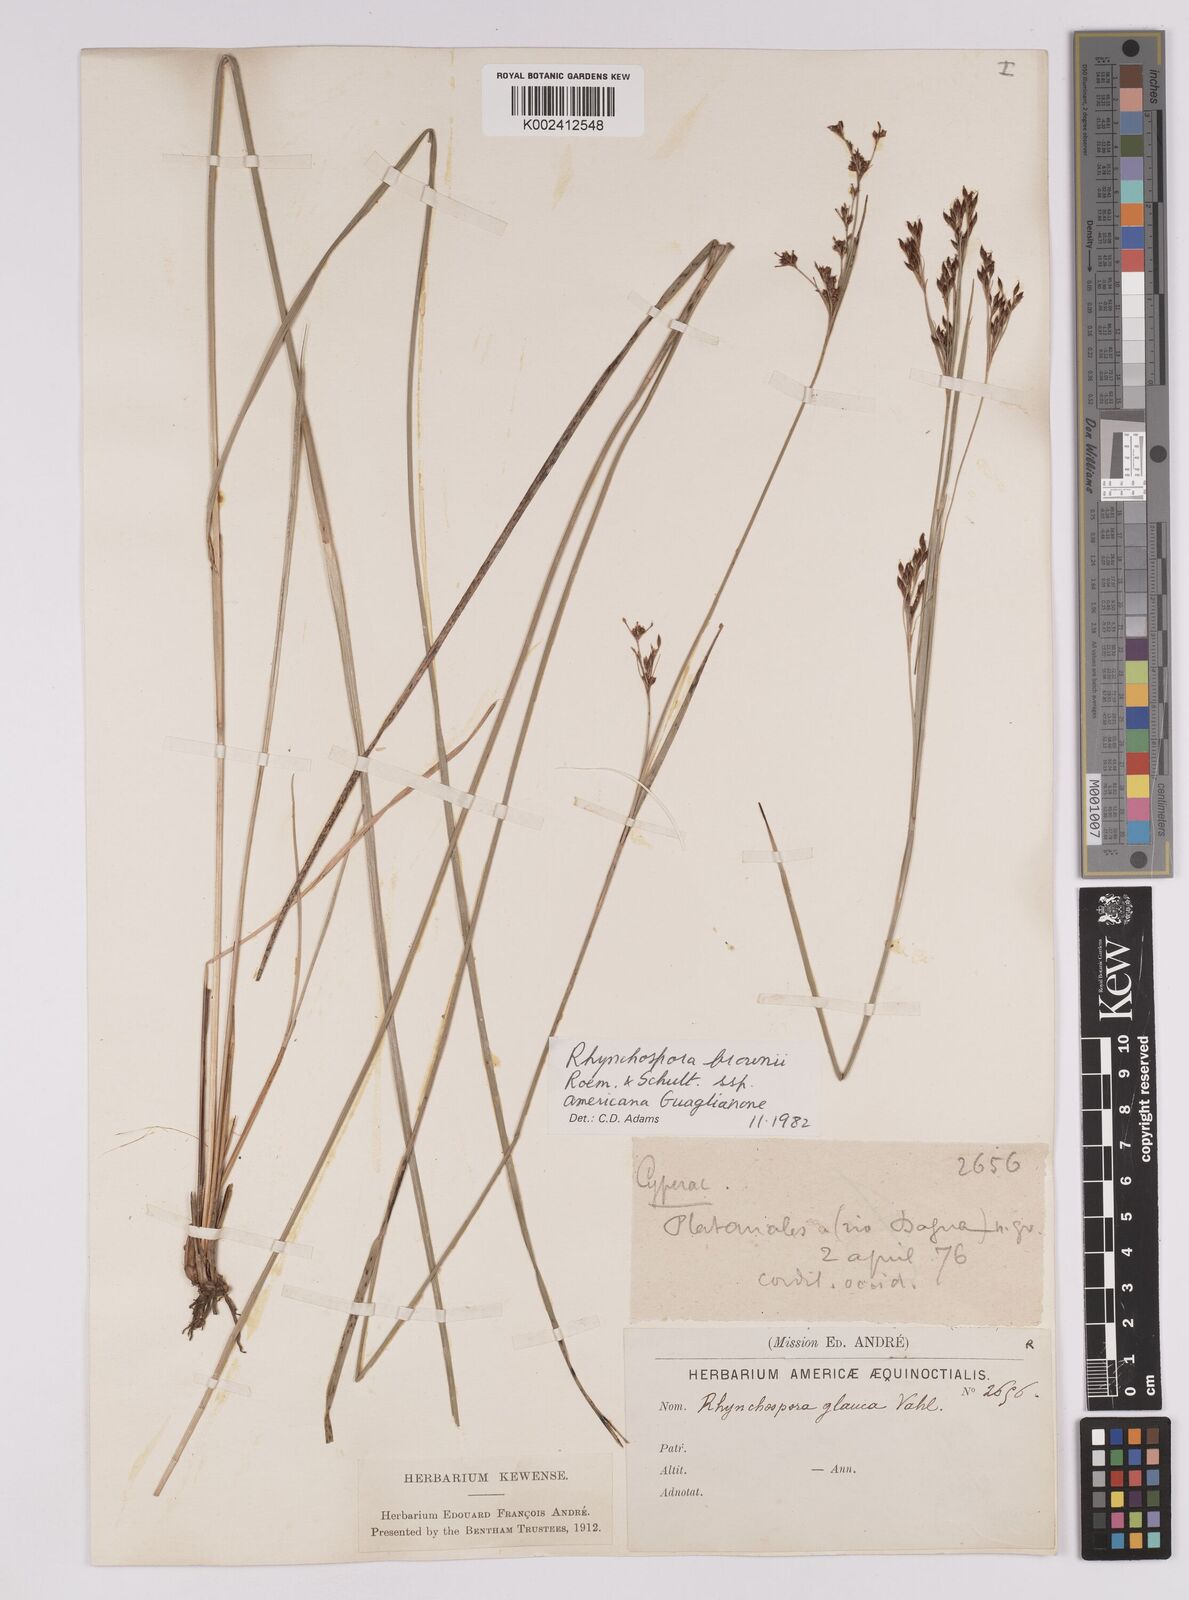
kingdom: Plantae
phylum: Tracheophyta
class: Liliopsida
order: Poales
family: Cyperaceae
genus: Rhynchospora
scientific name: Rhynchospora rugosa
